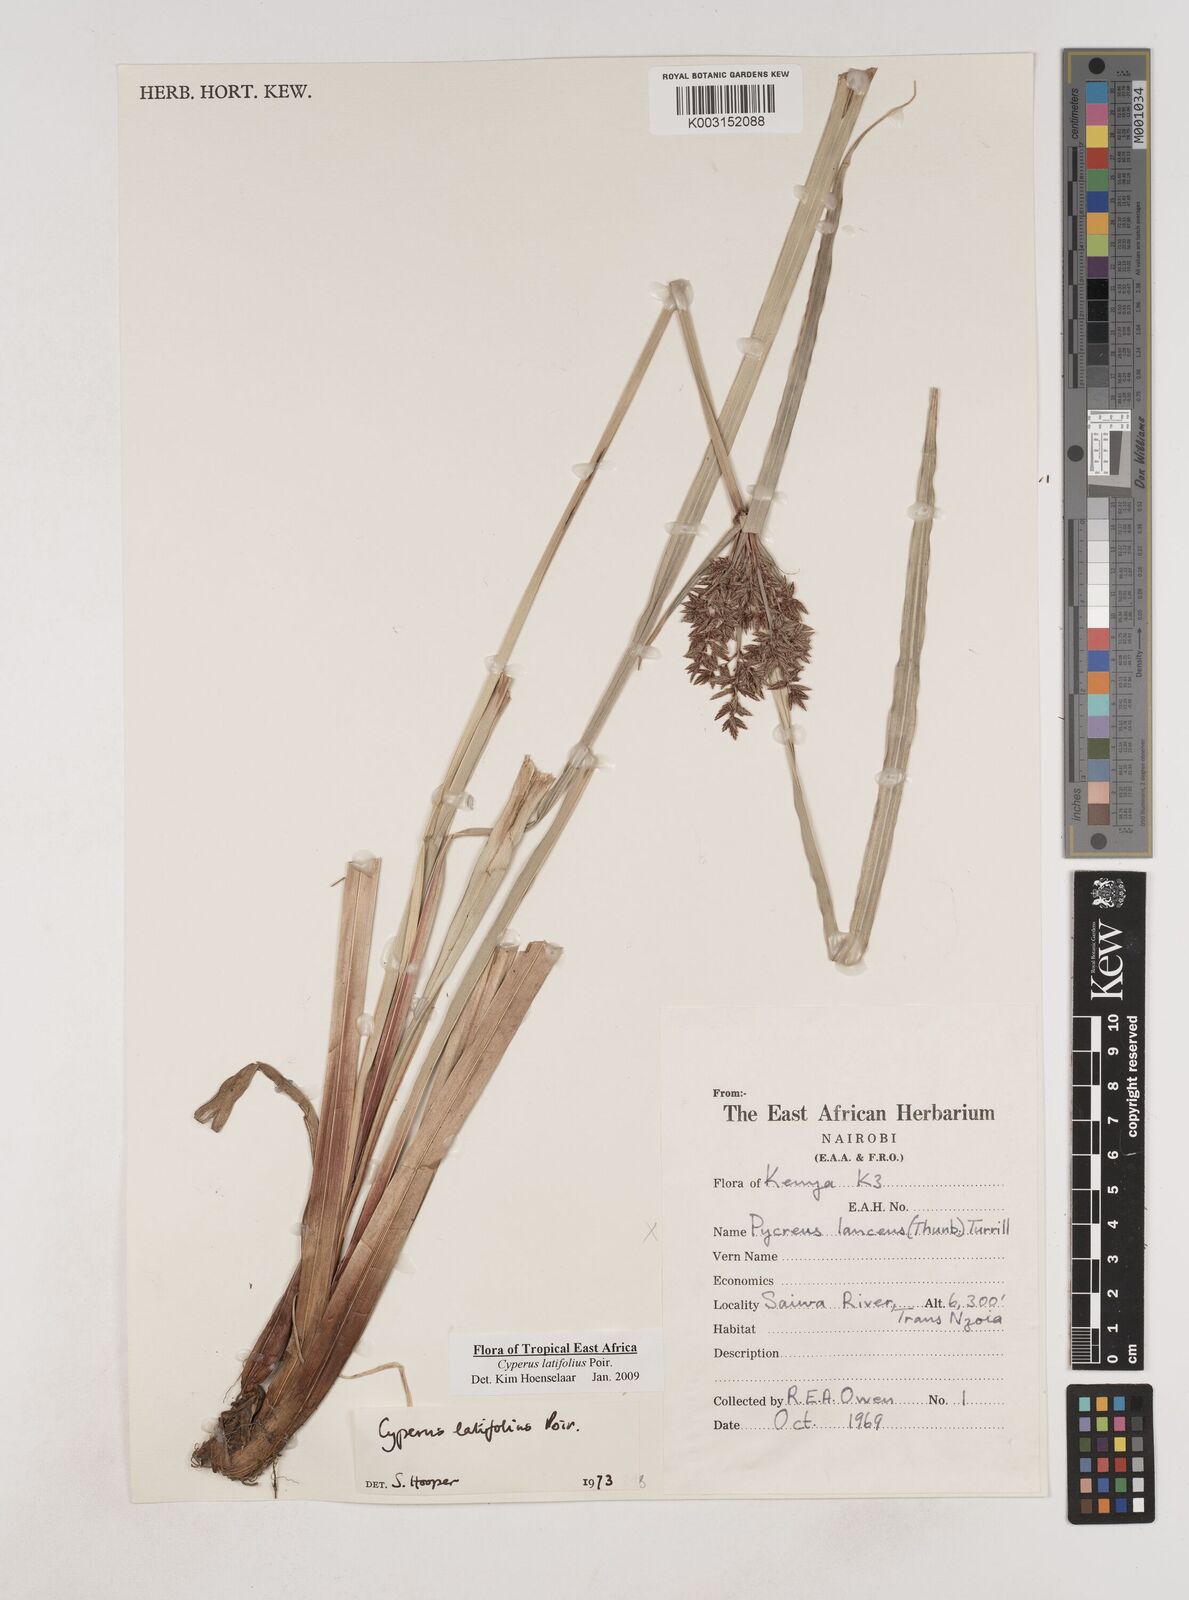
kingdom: Plantae
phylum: Tracheophyta
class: Liliopsida
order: Poales
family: Cyperaceae
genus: Cyperus
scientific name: Cyperus latifolius
